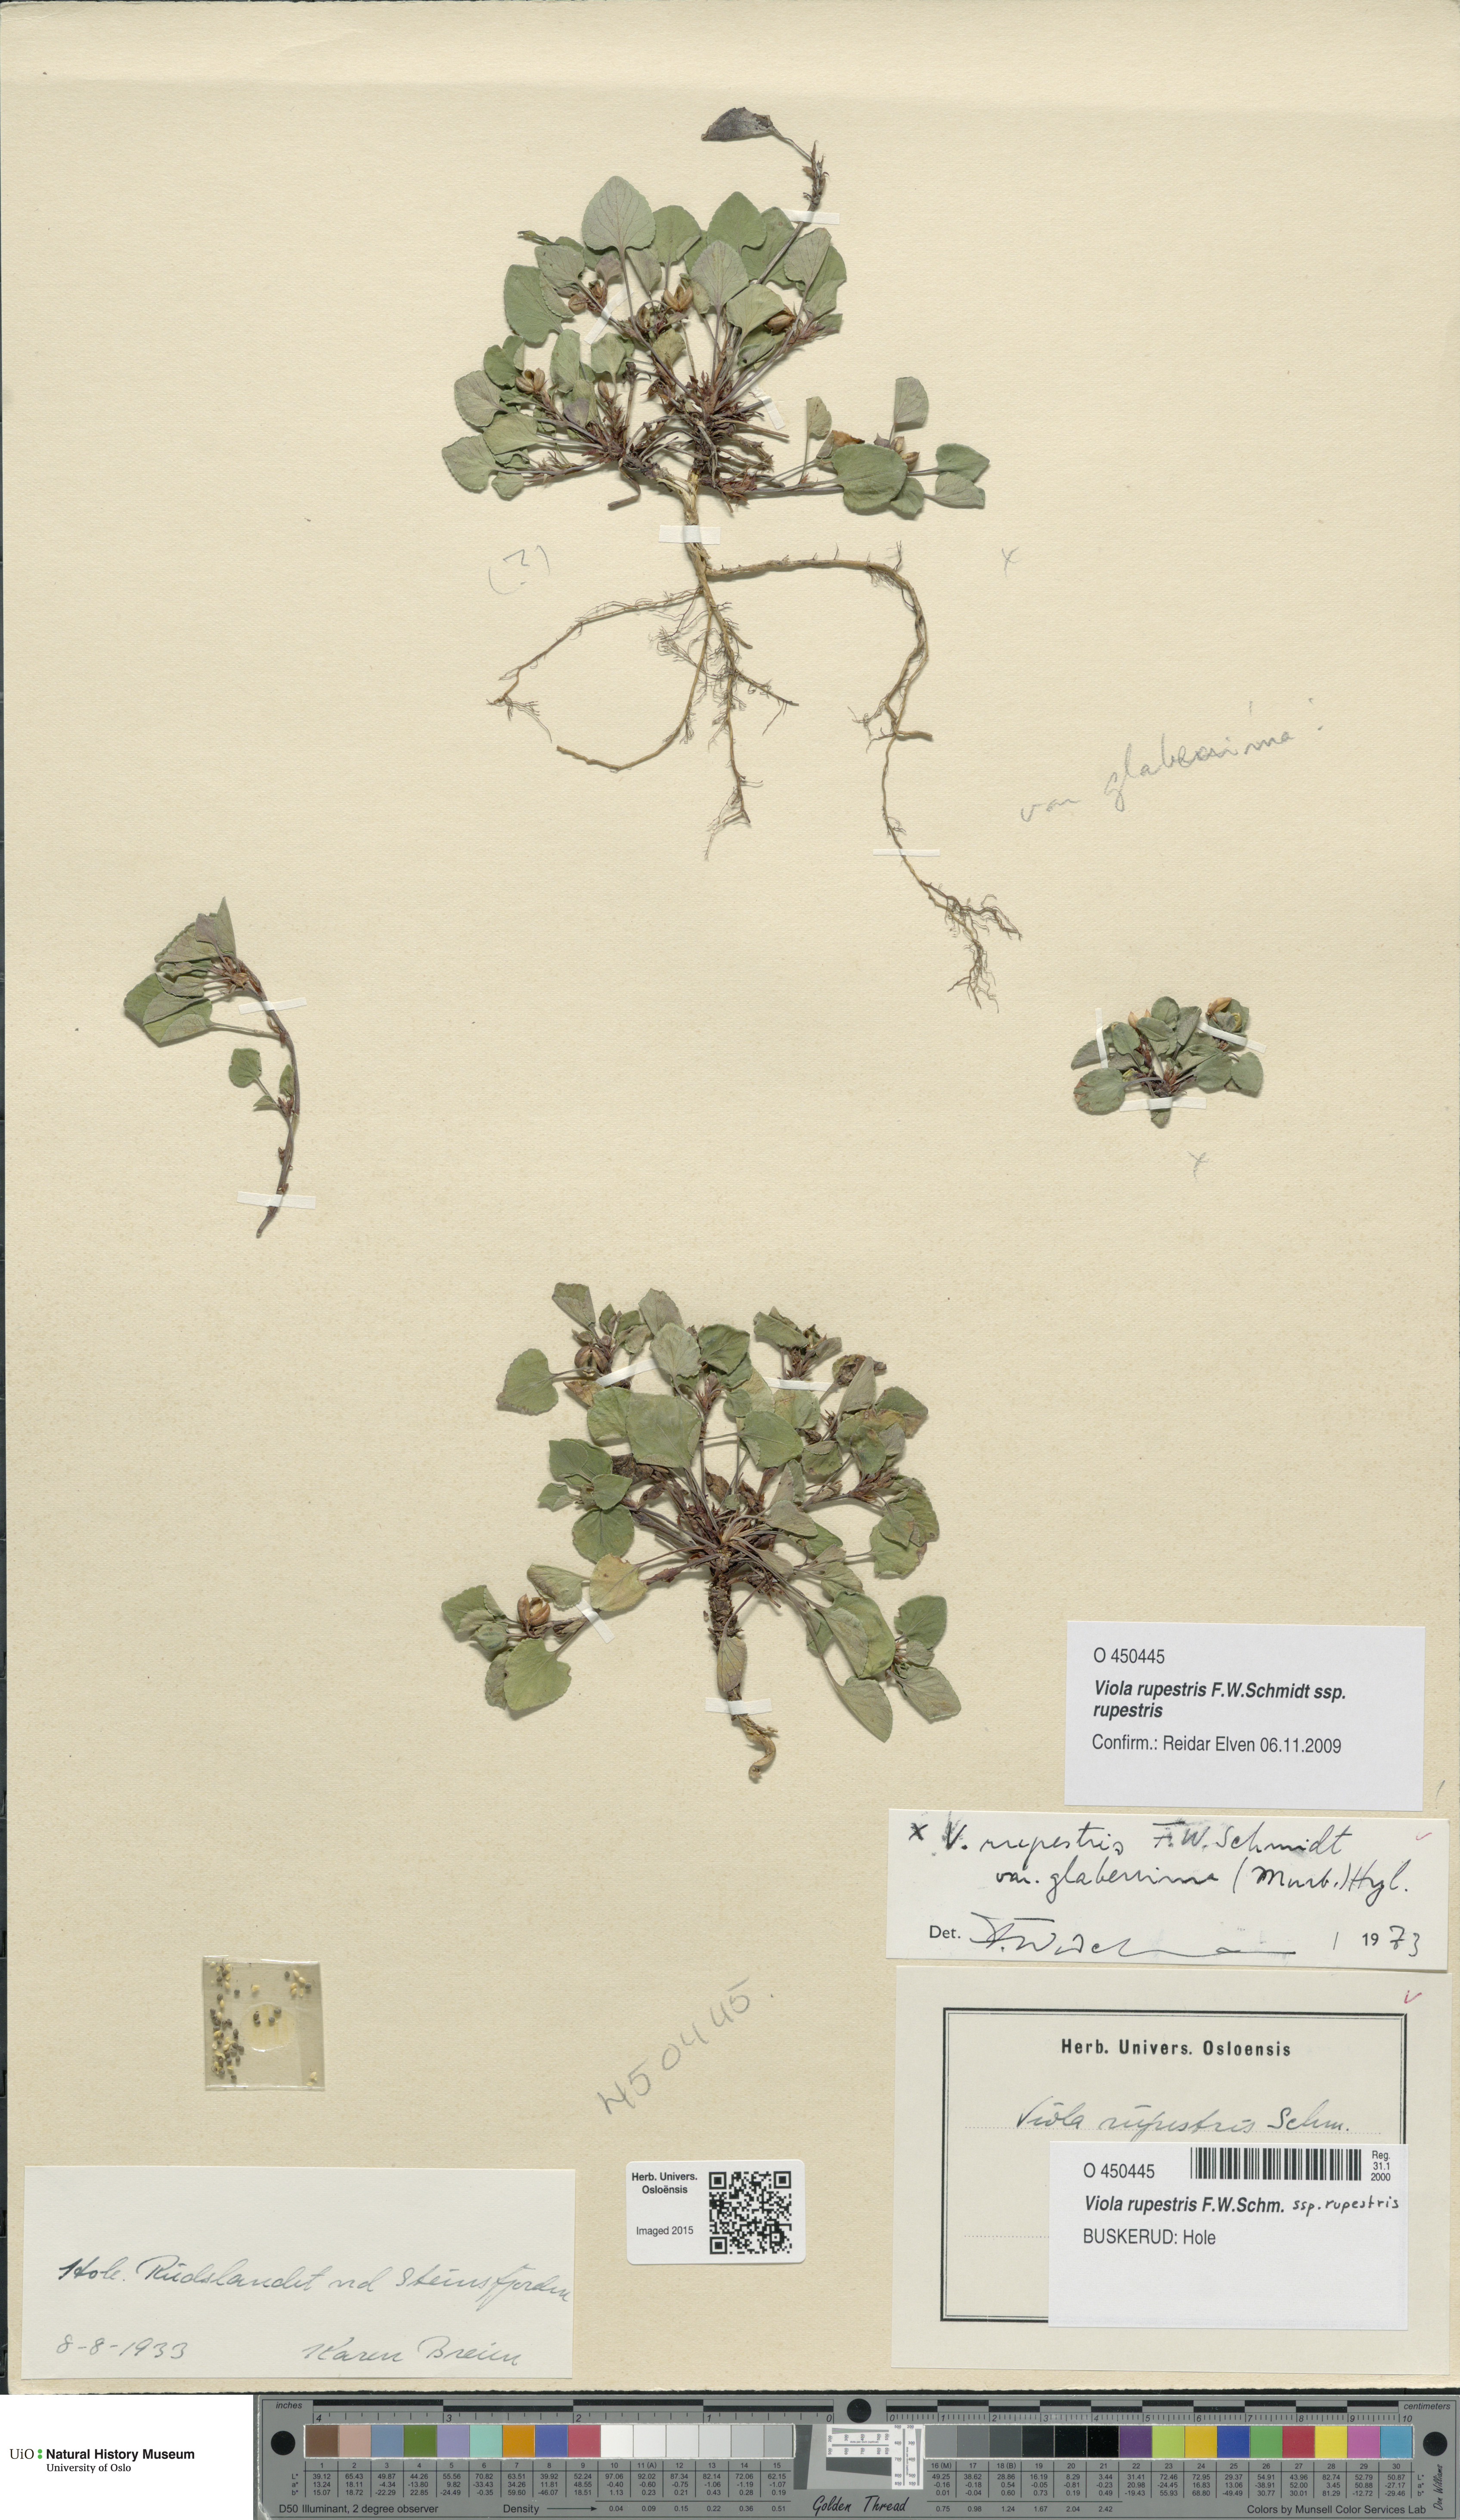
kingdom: Plantae
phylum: Tracheophyta
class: Magnoliopsida
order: Malpighiales
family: Violaceae
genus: Viola
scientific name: Viola rupestris
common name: Teesdale violet
